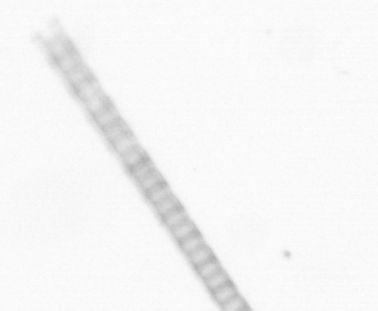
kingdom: Chromista
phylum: Ochrophyta
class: Bacillariophyceae
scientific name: Bacillariophyceae
